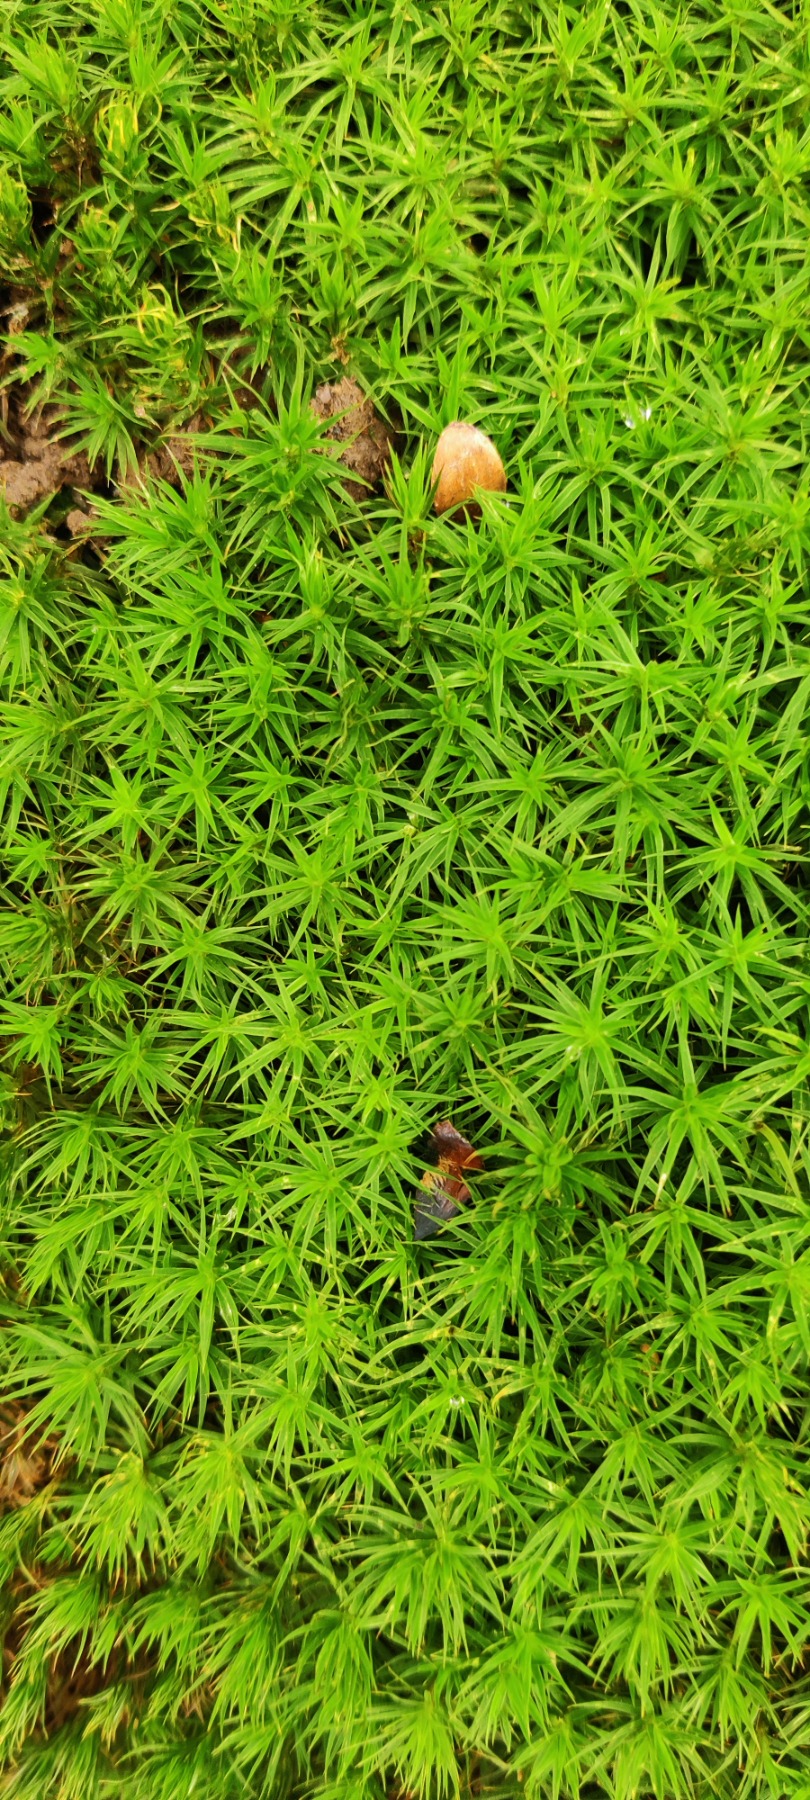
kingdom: Plantae
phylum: Bryophyta
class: Polytrichopsida
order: Polytrichales
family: Polytrichaceae
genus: Polytrichum
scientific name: Polytrichum formosum
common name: Skov-jomfruhår
